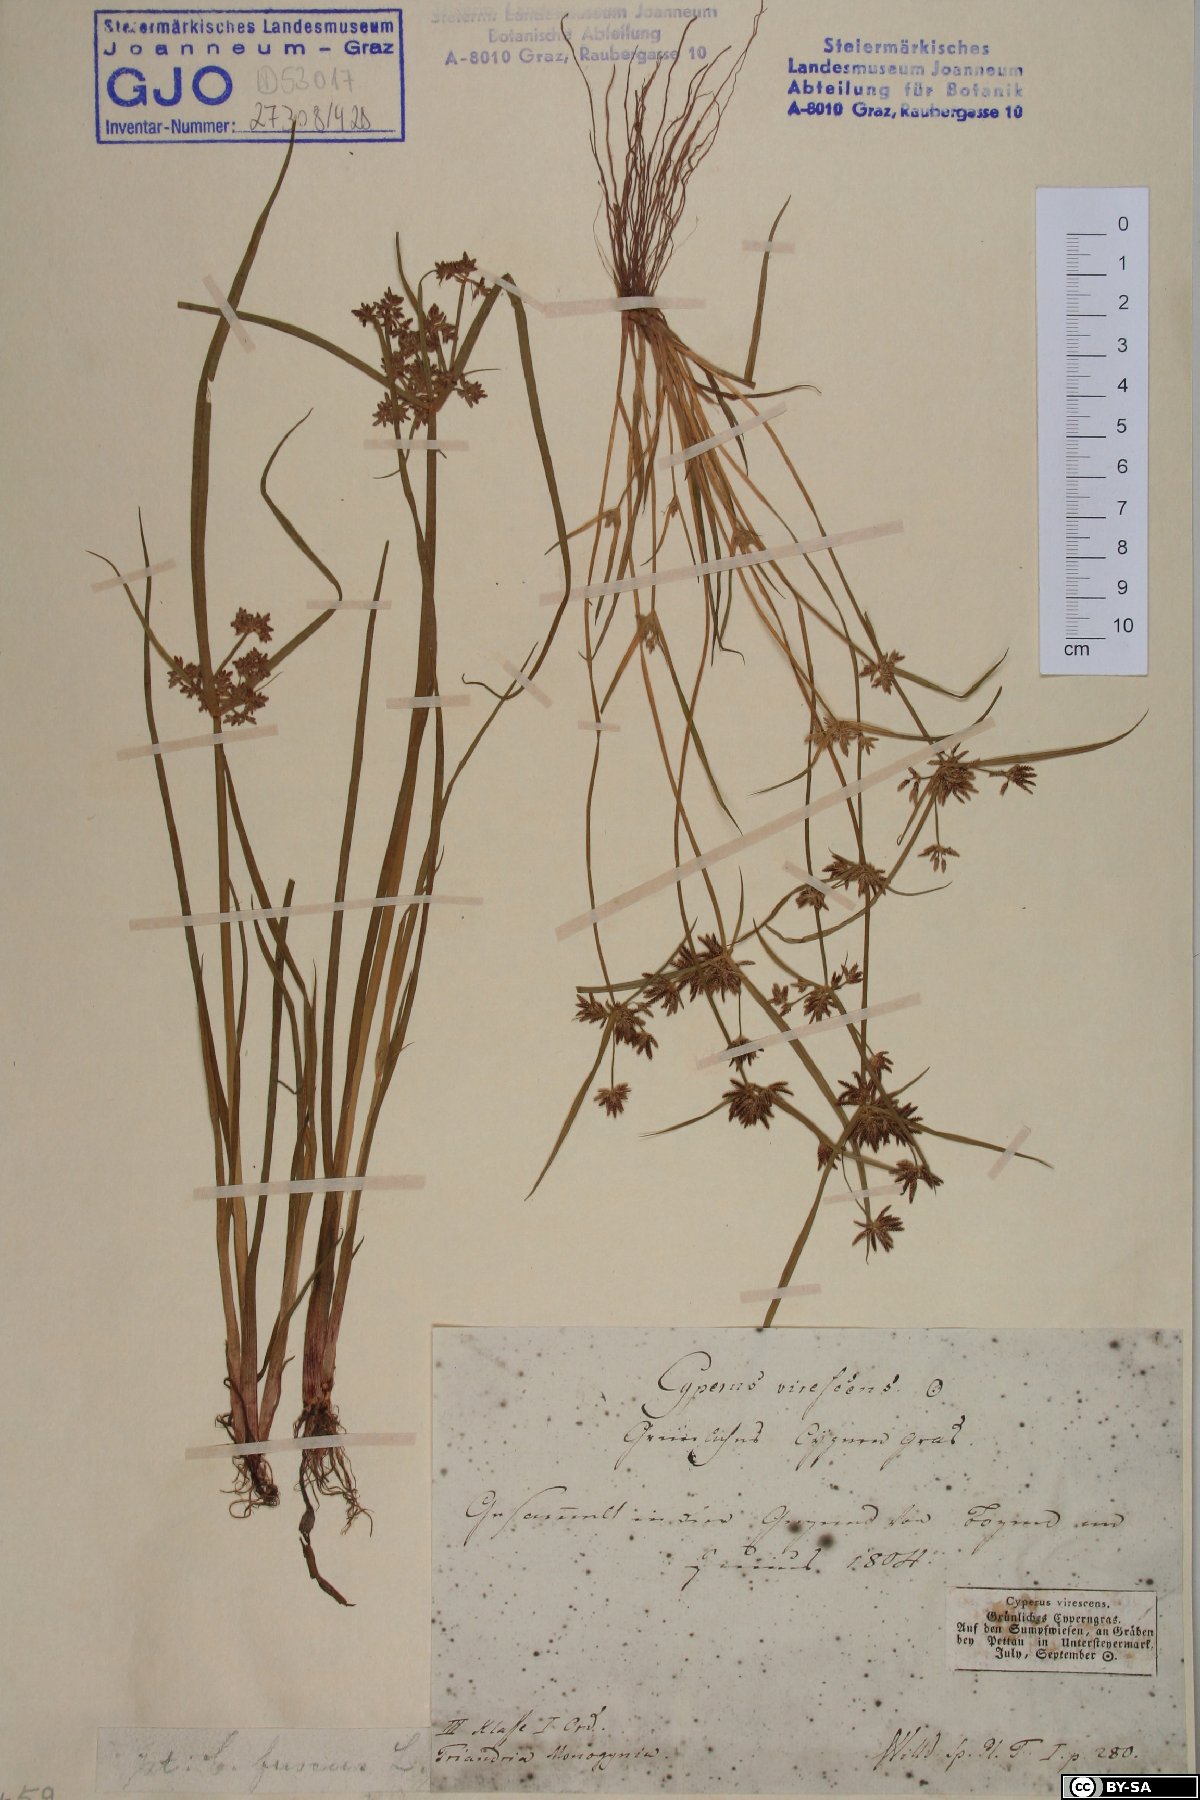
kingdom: Plantae
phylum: Tracheophyta
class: Liliopsida
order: Poales
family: Cyperaceae
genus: Cyperus
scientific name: Cyperus fuscus
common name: Brown galingale
